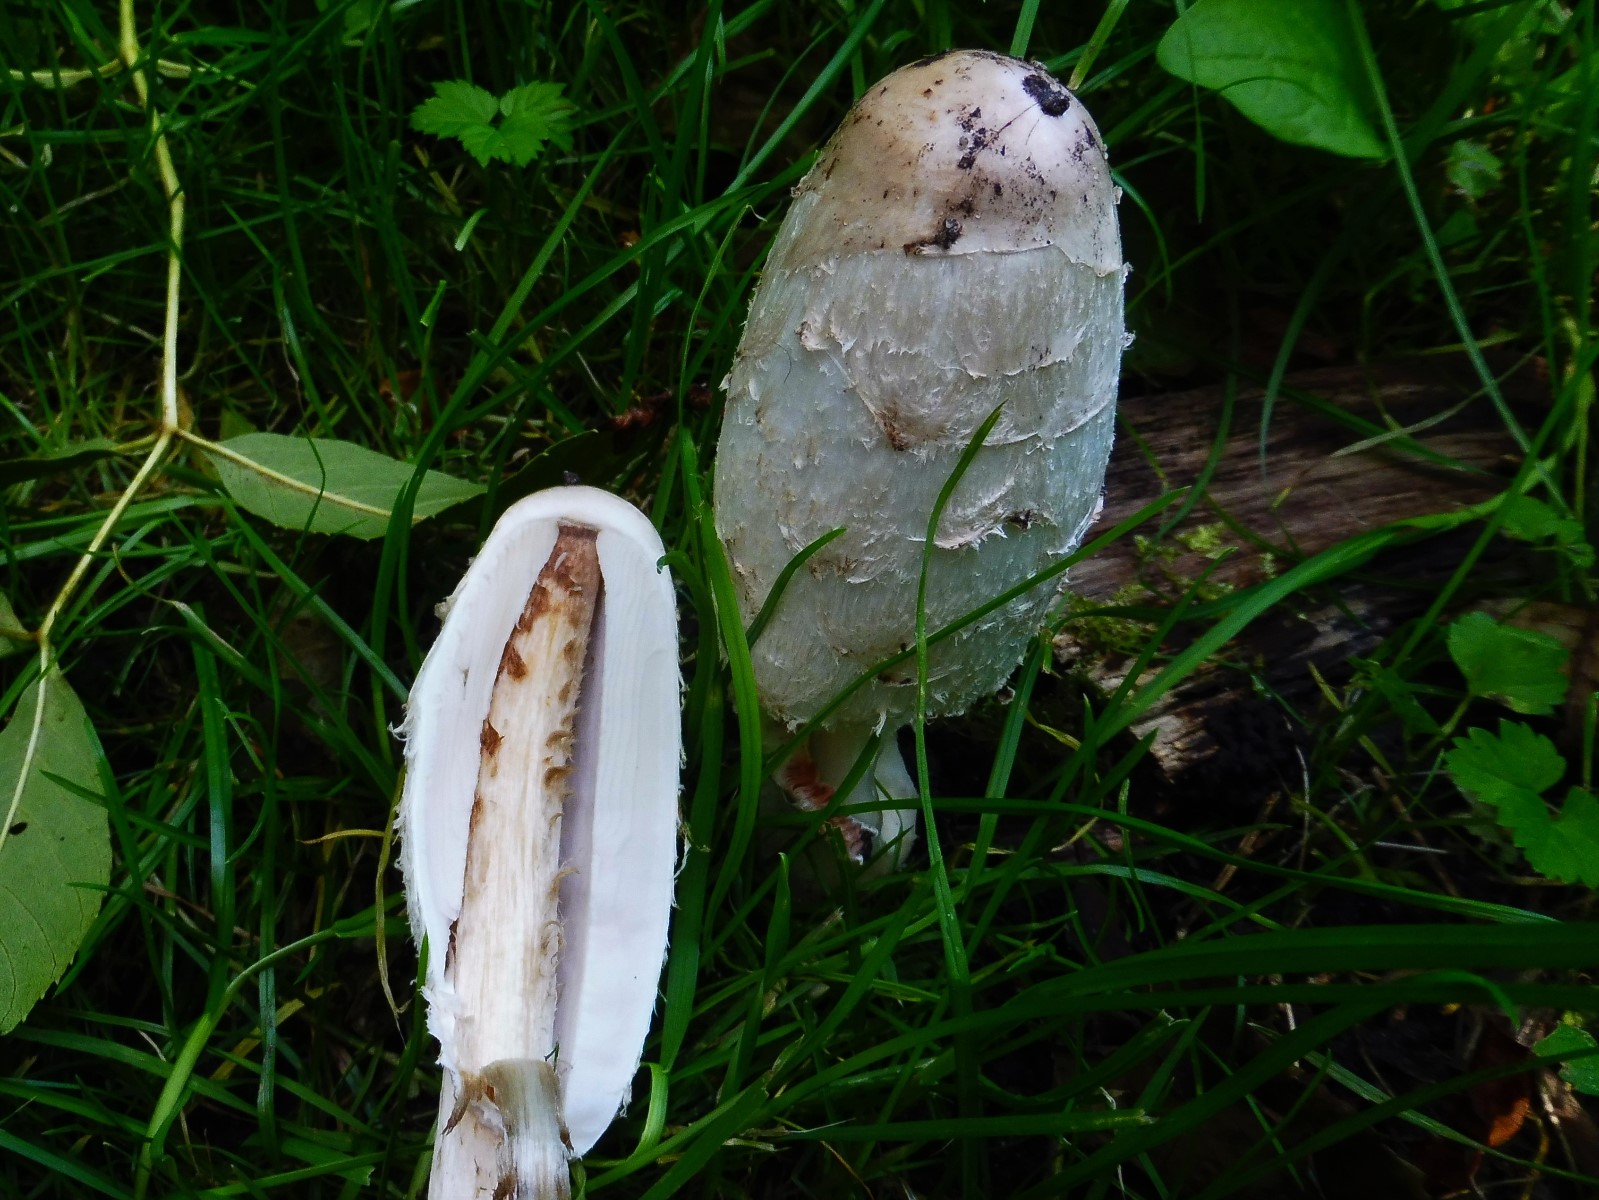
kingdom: Fungi
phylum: Basidiomycota
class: Agaricomycetes
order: Agaricales
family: Agaricaceae
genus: Coprinus
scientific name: Coprinus comatus
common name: stor parykhat
